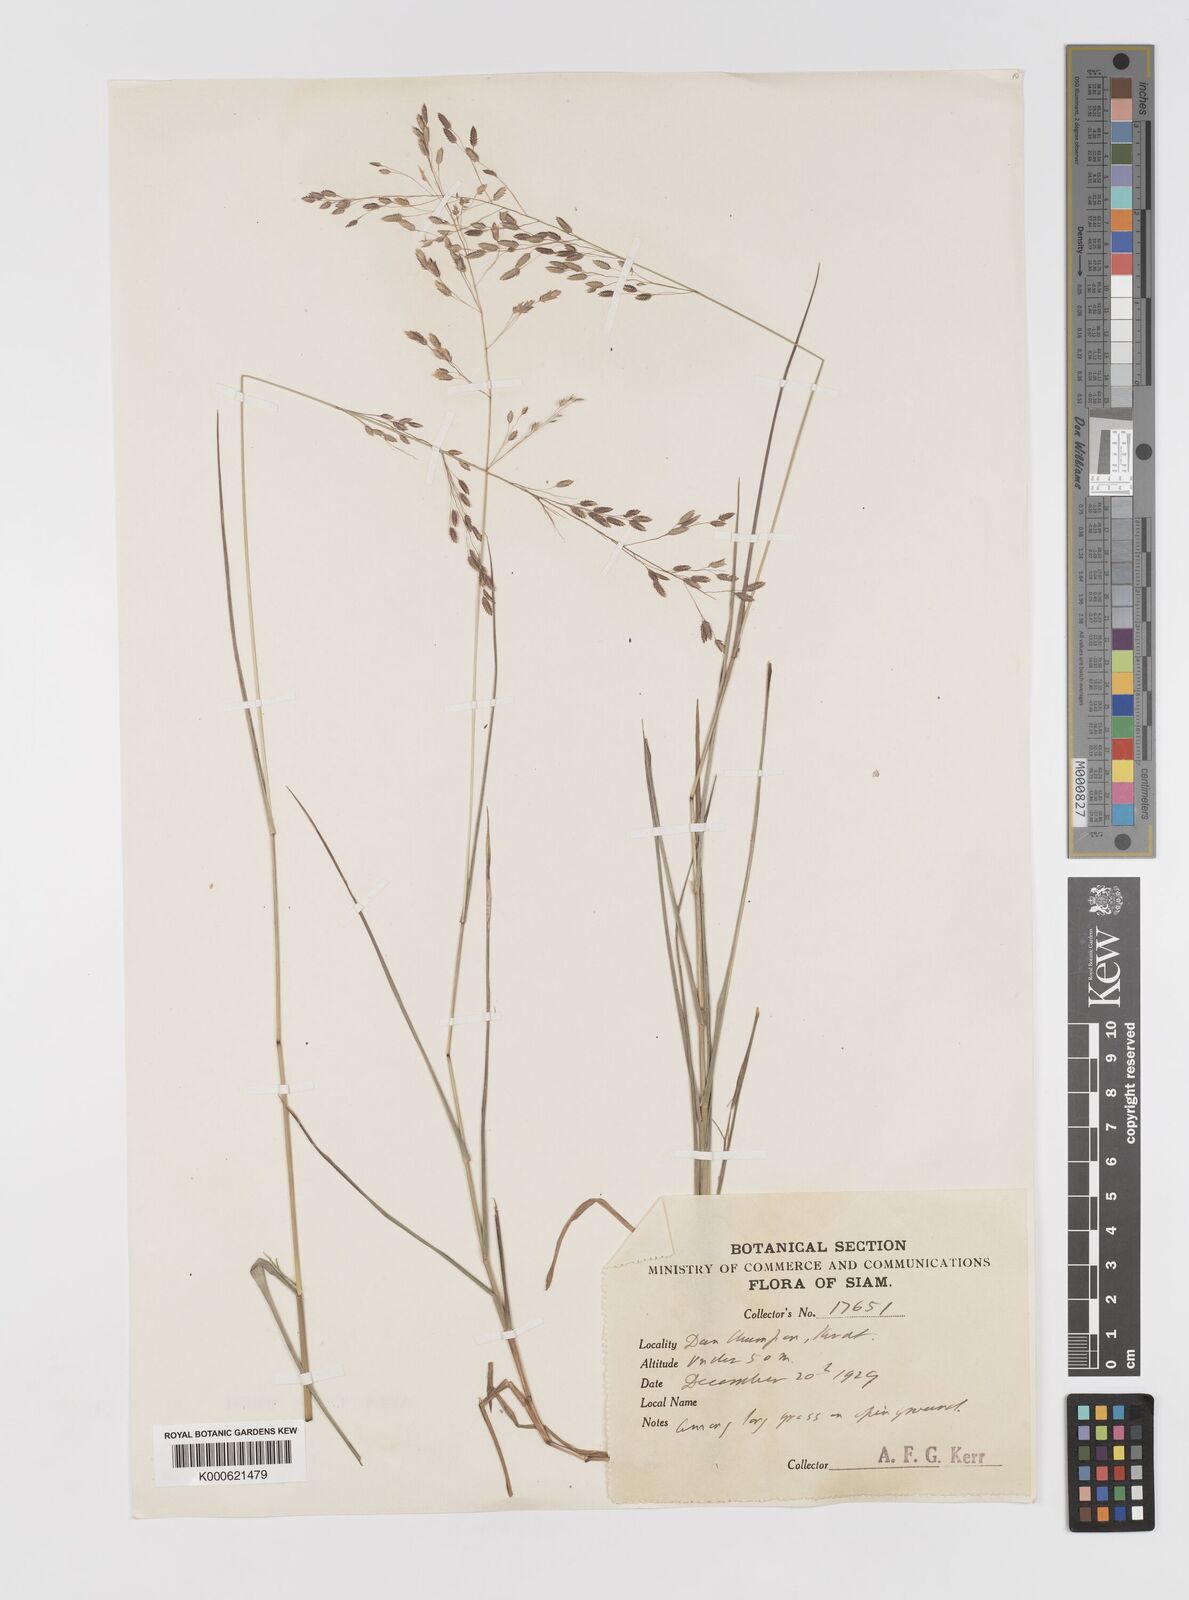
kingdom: Plantae
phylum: Tracheophyta
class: Liliopsida
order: Poales
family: Poaceae
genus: Eragrostis
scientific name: Eragrostis brownii
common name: Lovegrass
